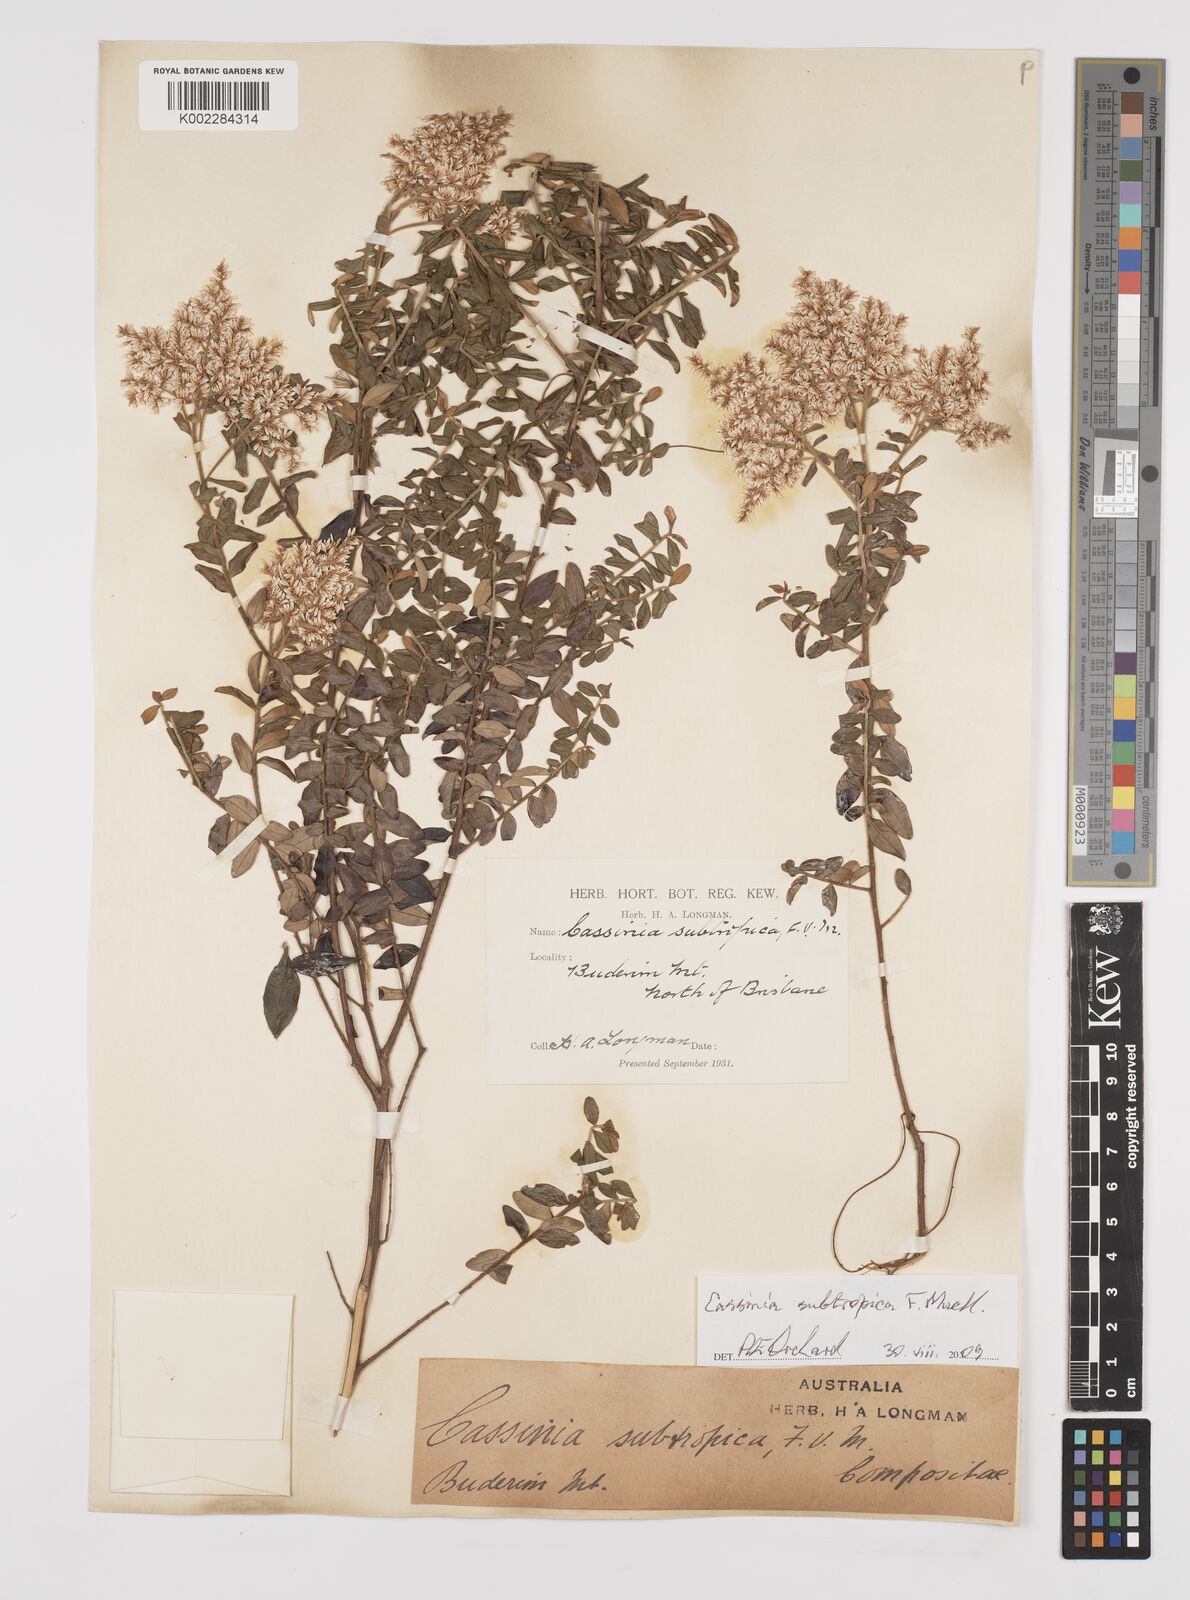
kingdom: Plantae
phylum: Tracheophyta
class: Magnoliopsida
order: Asterales
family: Asteraceae
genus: Cassinia
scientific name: Cassinia subtropica
